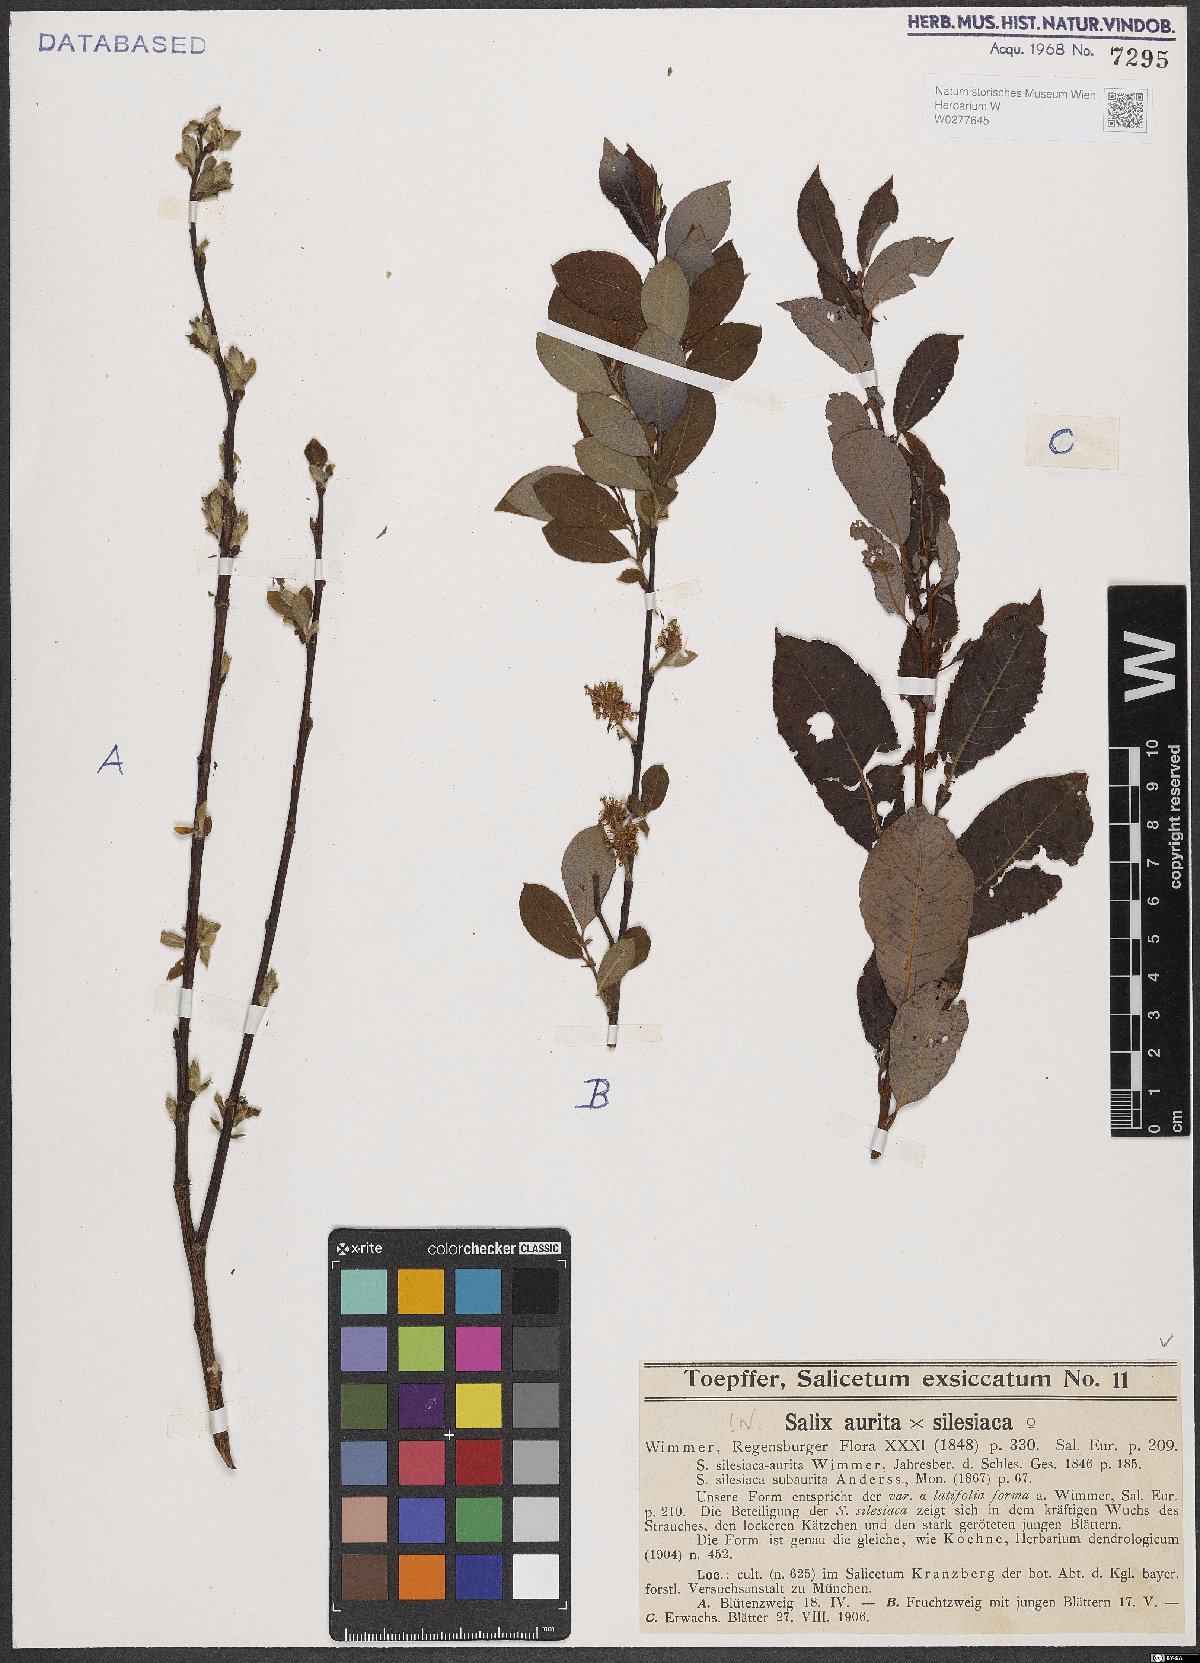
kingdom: Plantae
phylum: Tracheophyta
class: Magnoliopsida
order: Malpighiales
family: Salicaceae
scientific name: Salicaceae
